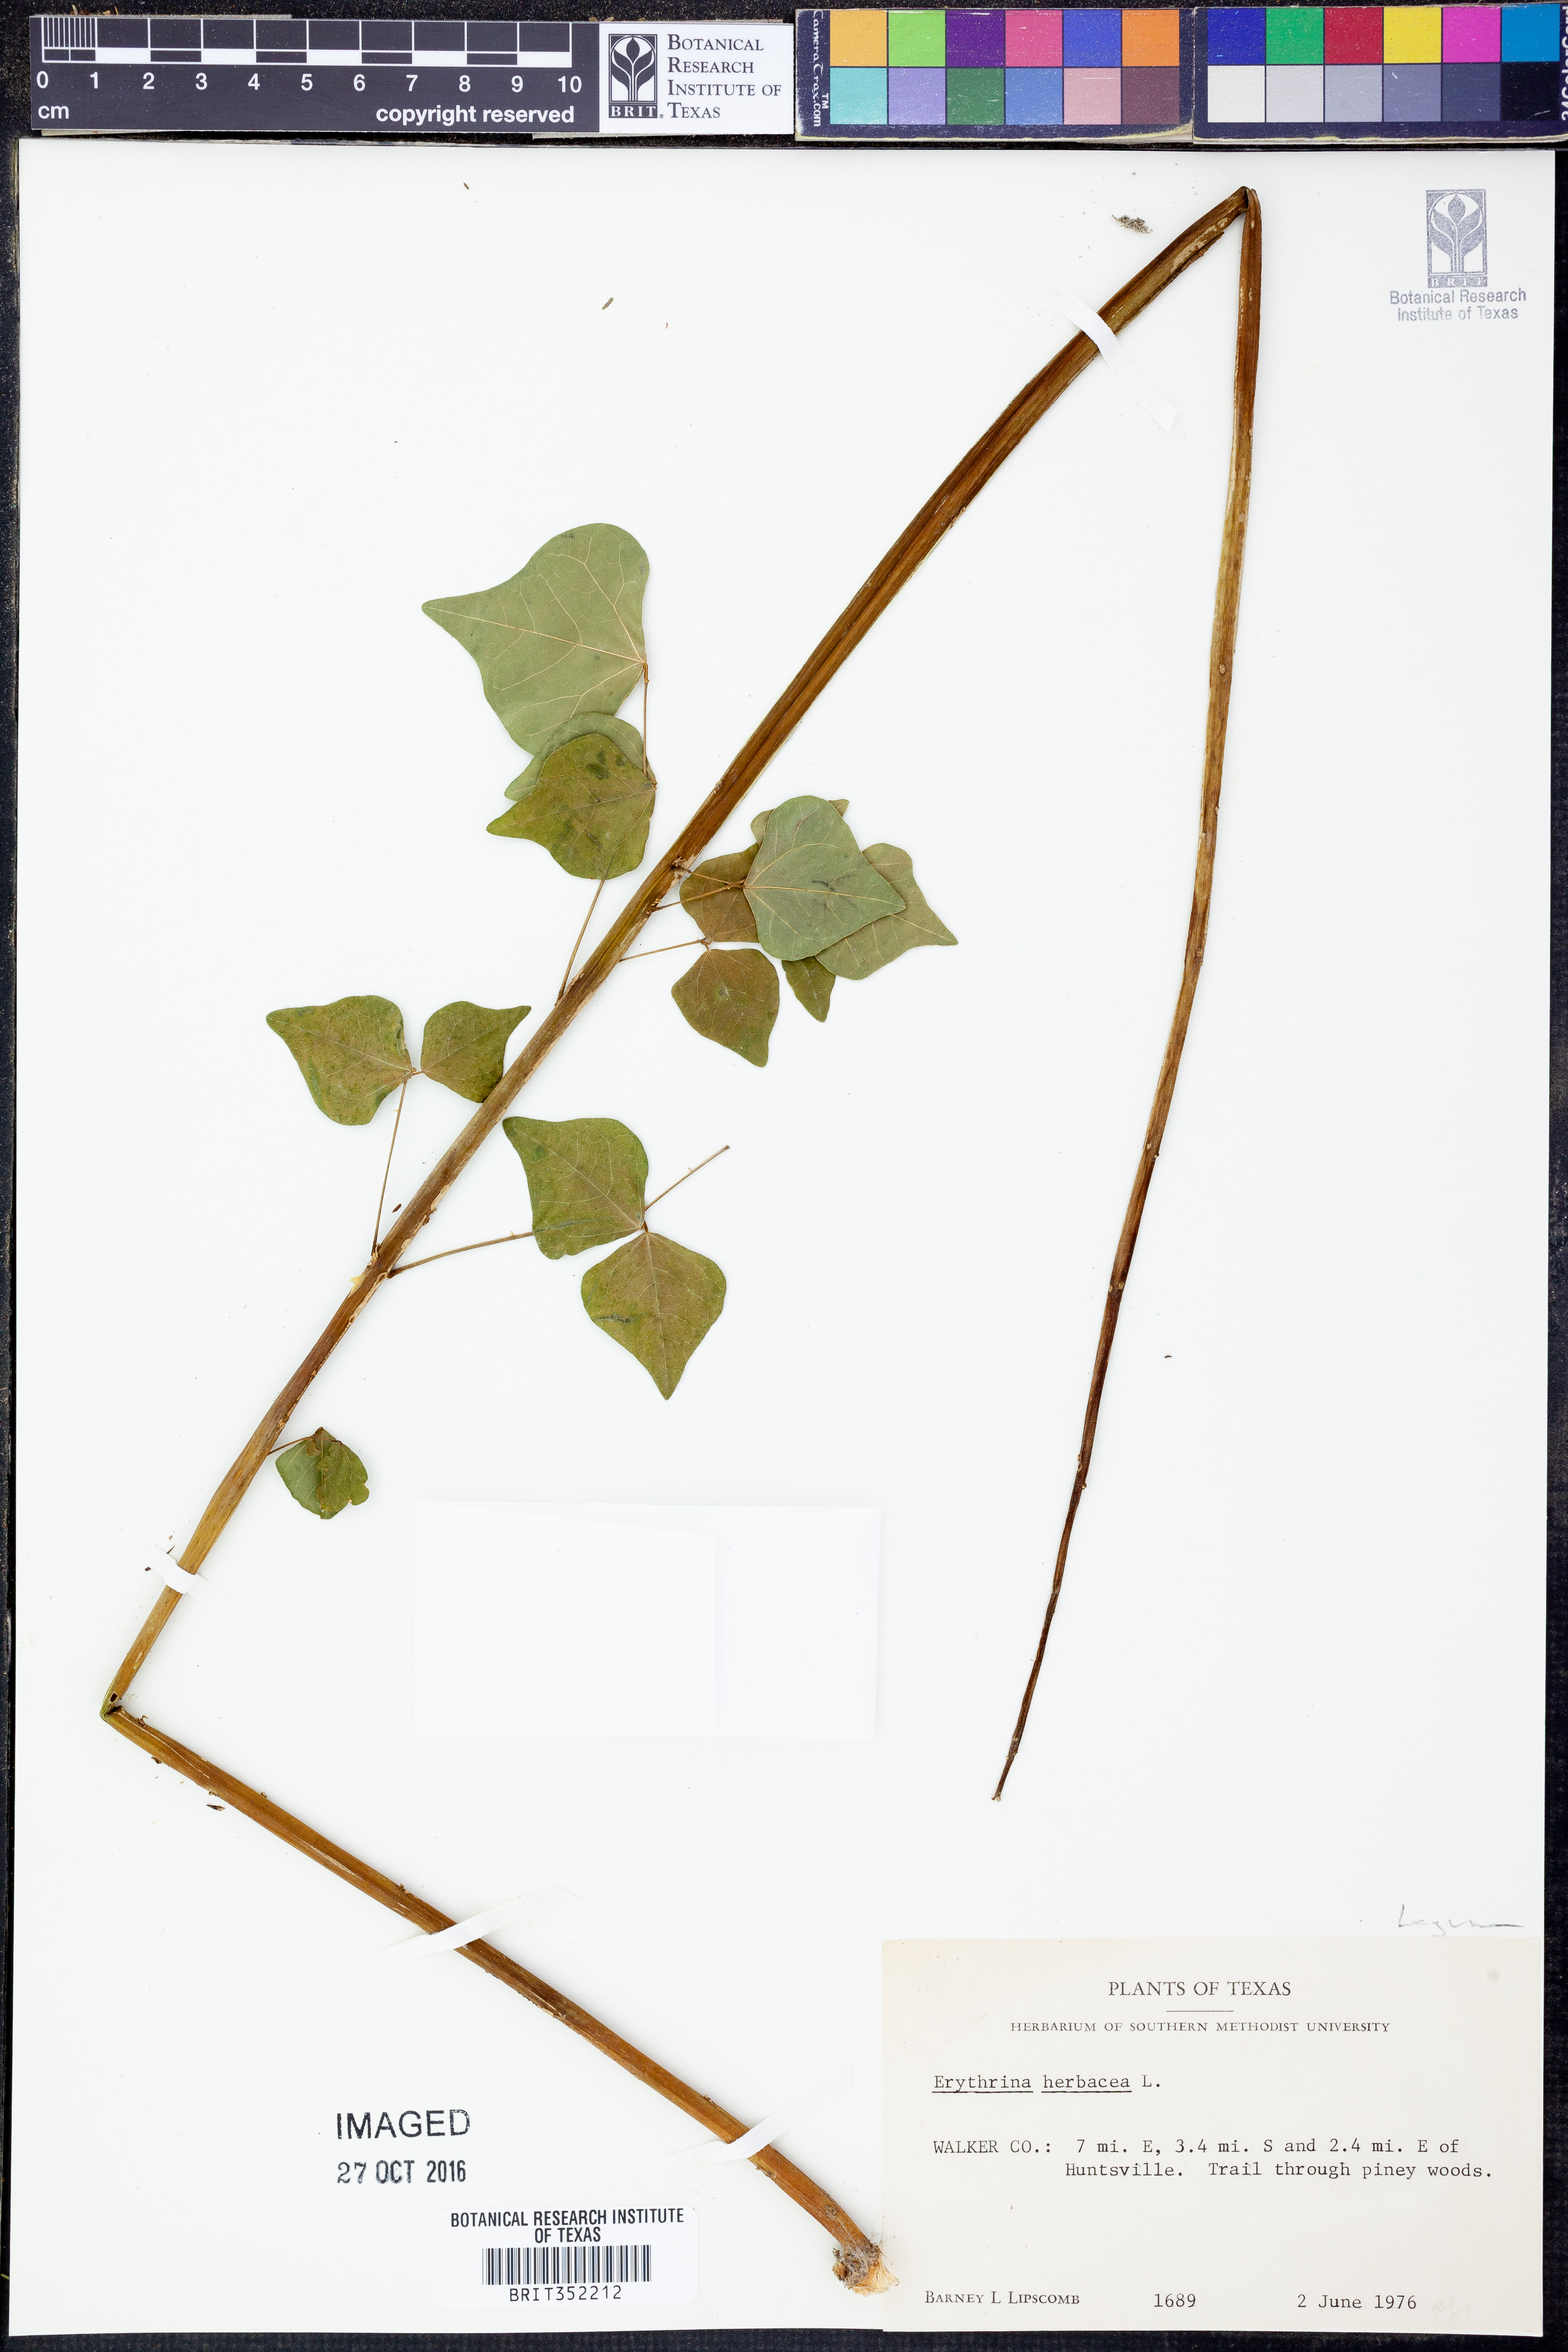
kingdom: Plantae
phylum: Tracheophyta
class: Magnoliopsida
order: Fabales
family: Fabaceae
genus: Erythrina
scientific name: Erythrina herbacea
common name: Coral-bean
